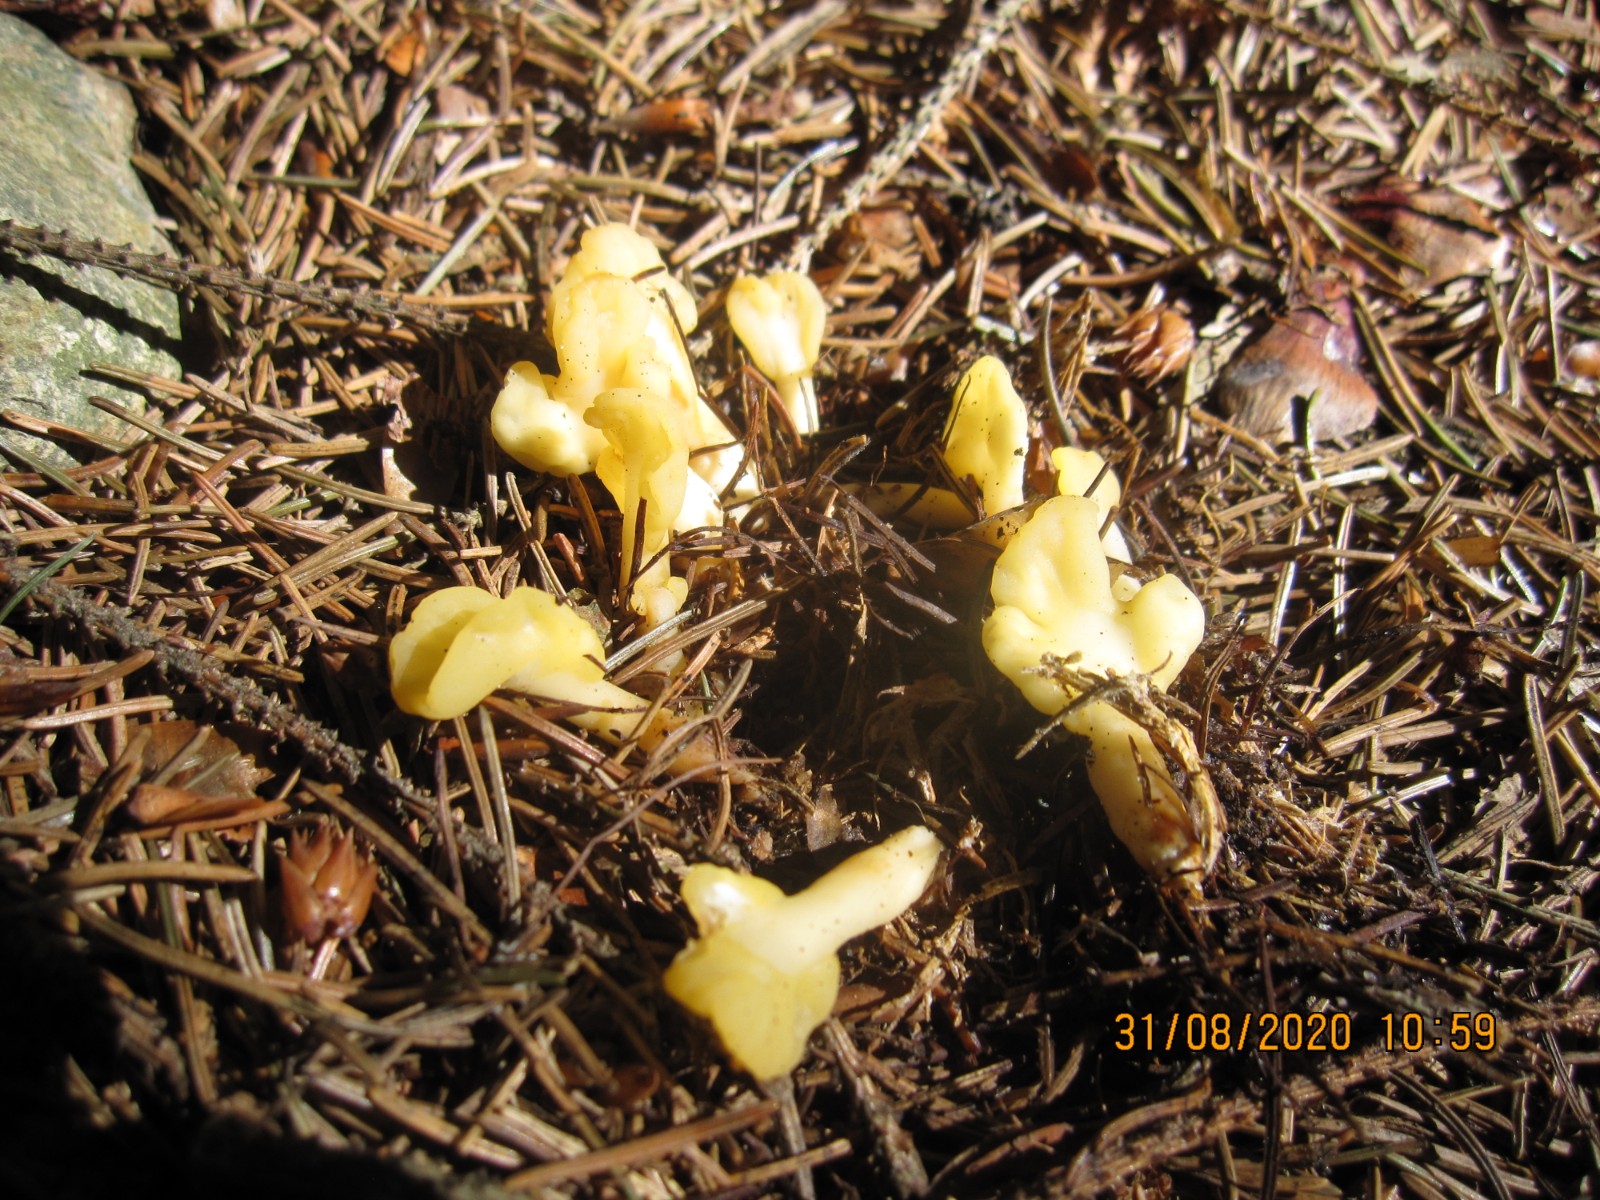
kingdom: Fungi
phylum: Ascomycota
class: Leotiomycetes
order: Rhytismatales
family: Cudoniaceae
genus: Spathularia
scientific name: Spathularia flavida
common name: gul spatelsvamp
